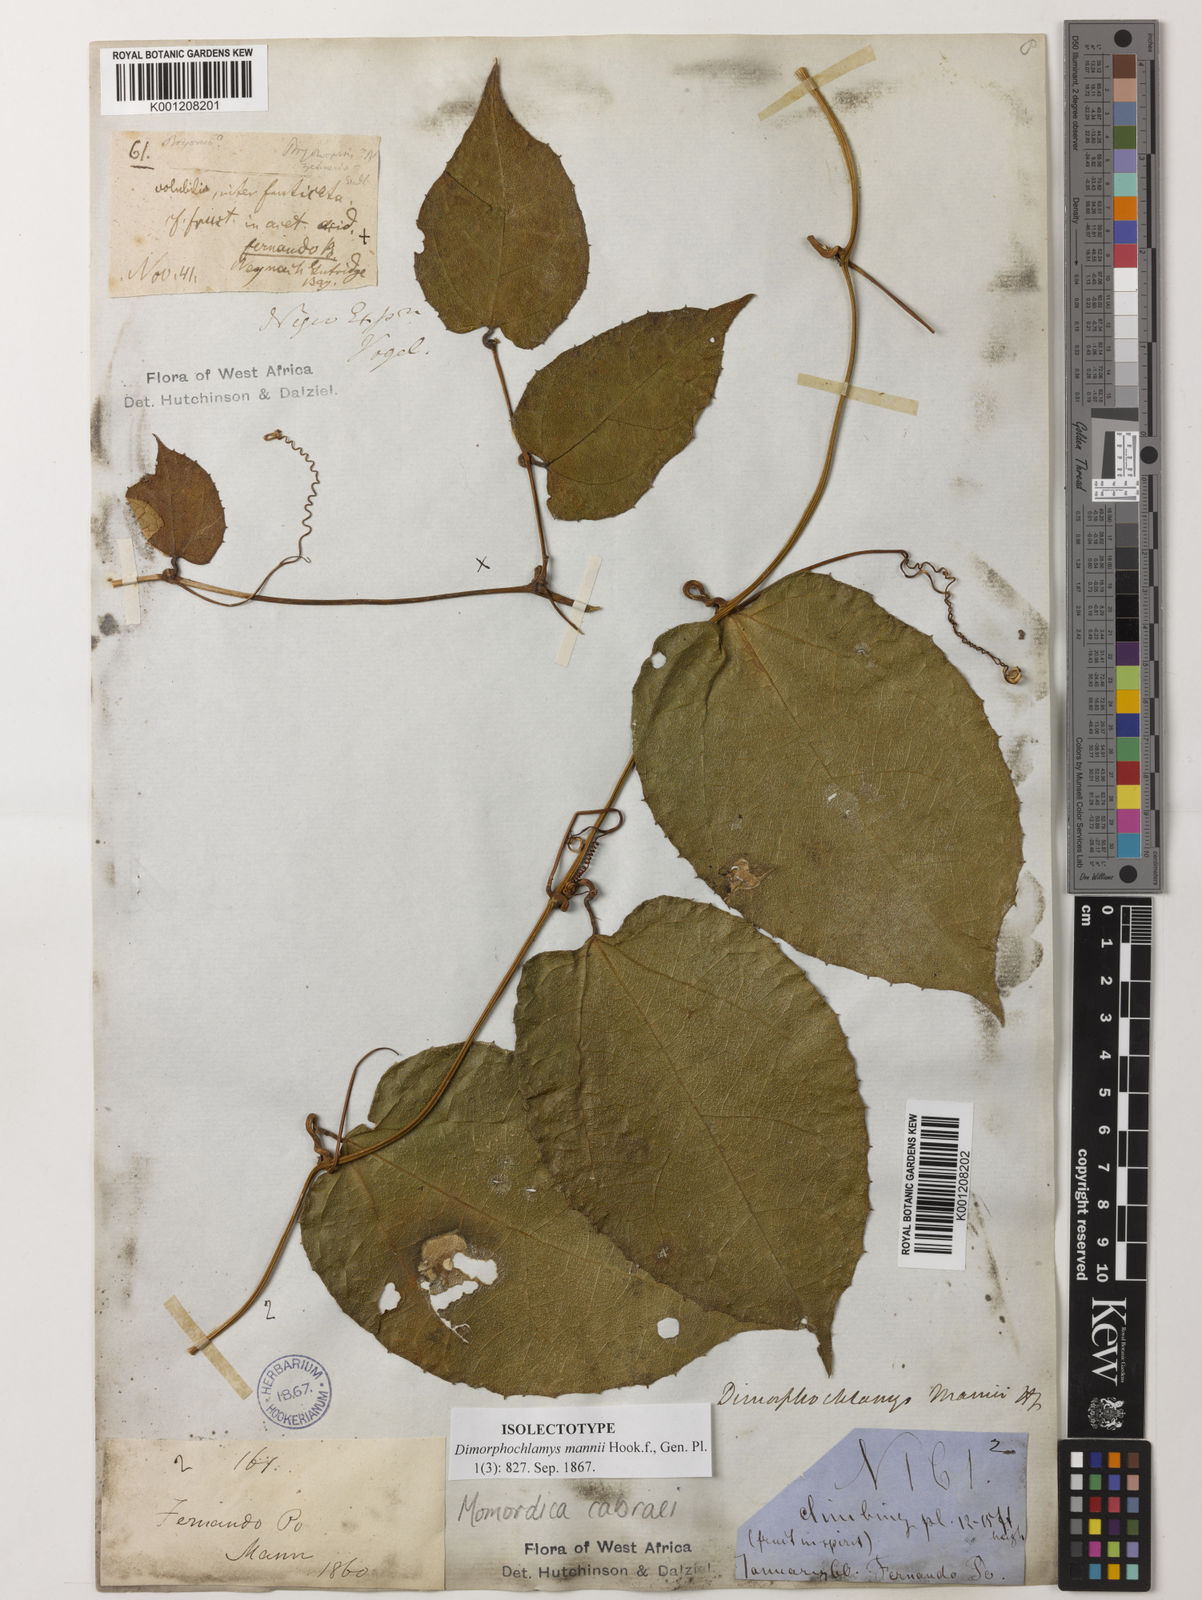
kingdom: Plantae
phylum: Tracheophyta
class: Magnoliopsida
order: Cucurbitales
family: Cucurbitaceae
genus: Momordica
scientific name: Momordica
